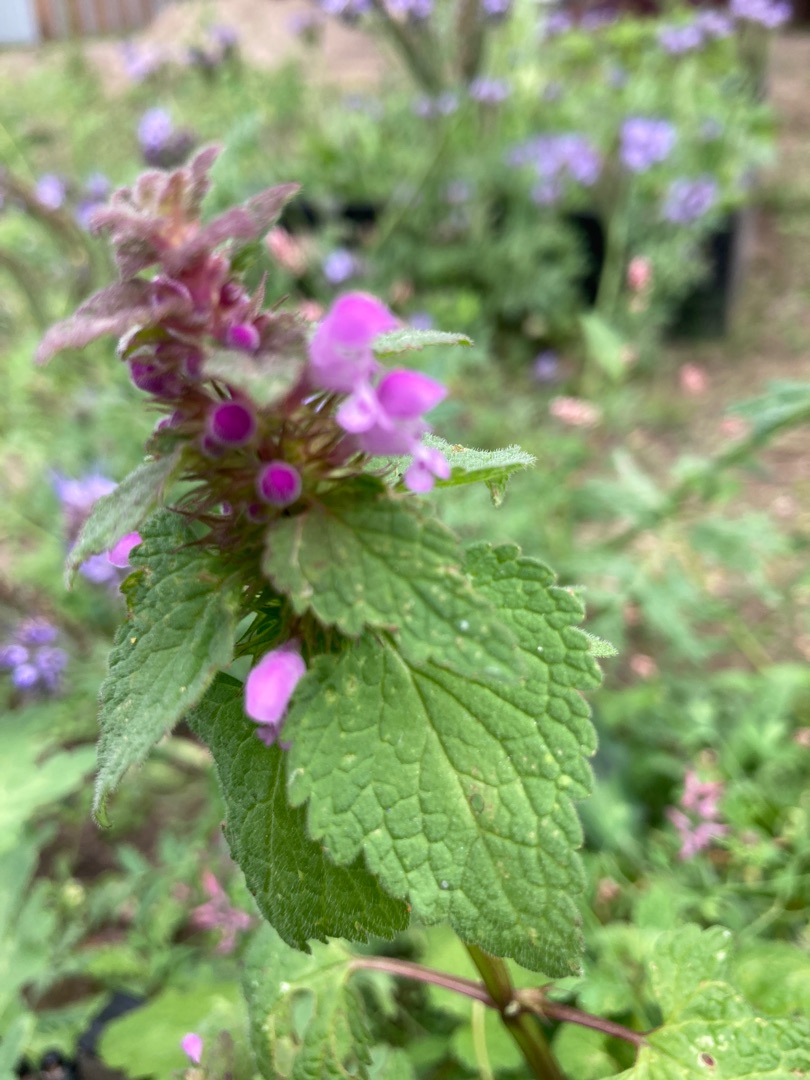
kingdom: Plantae
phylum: Tracheophyta
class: Magnoliopsida
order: Lamiales
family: Lamiaceae
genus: Lamium
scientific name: Lamium purpureum
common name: Rød tvetand
